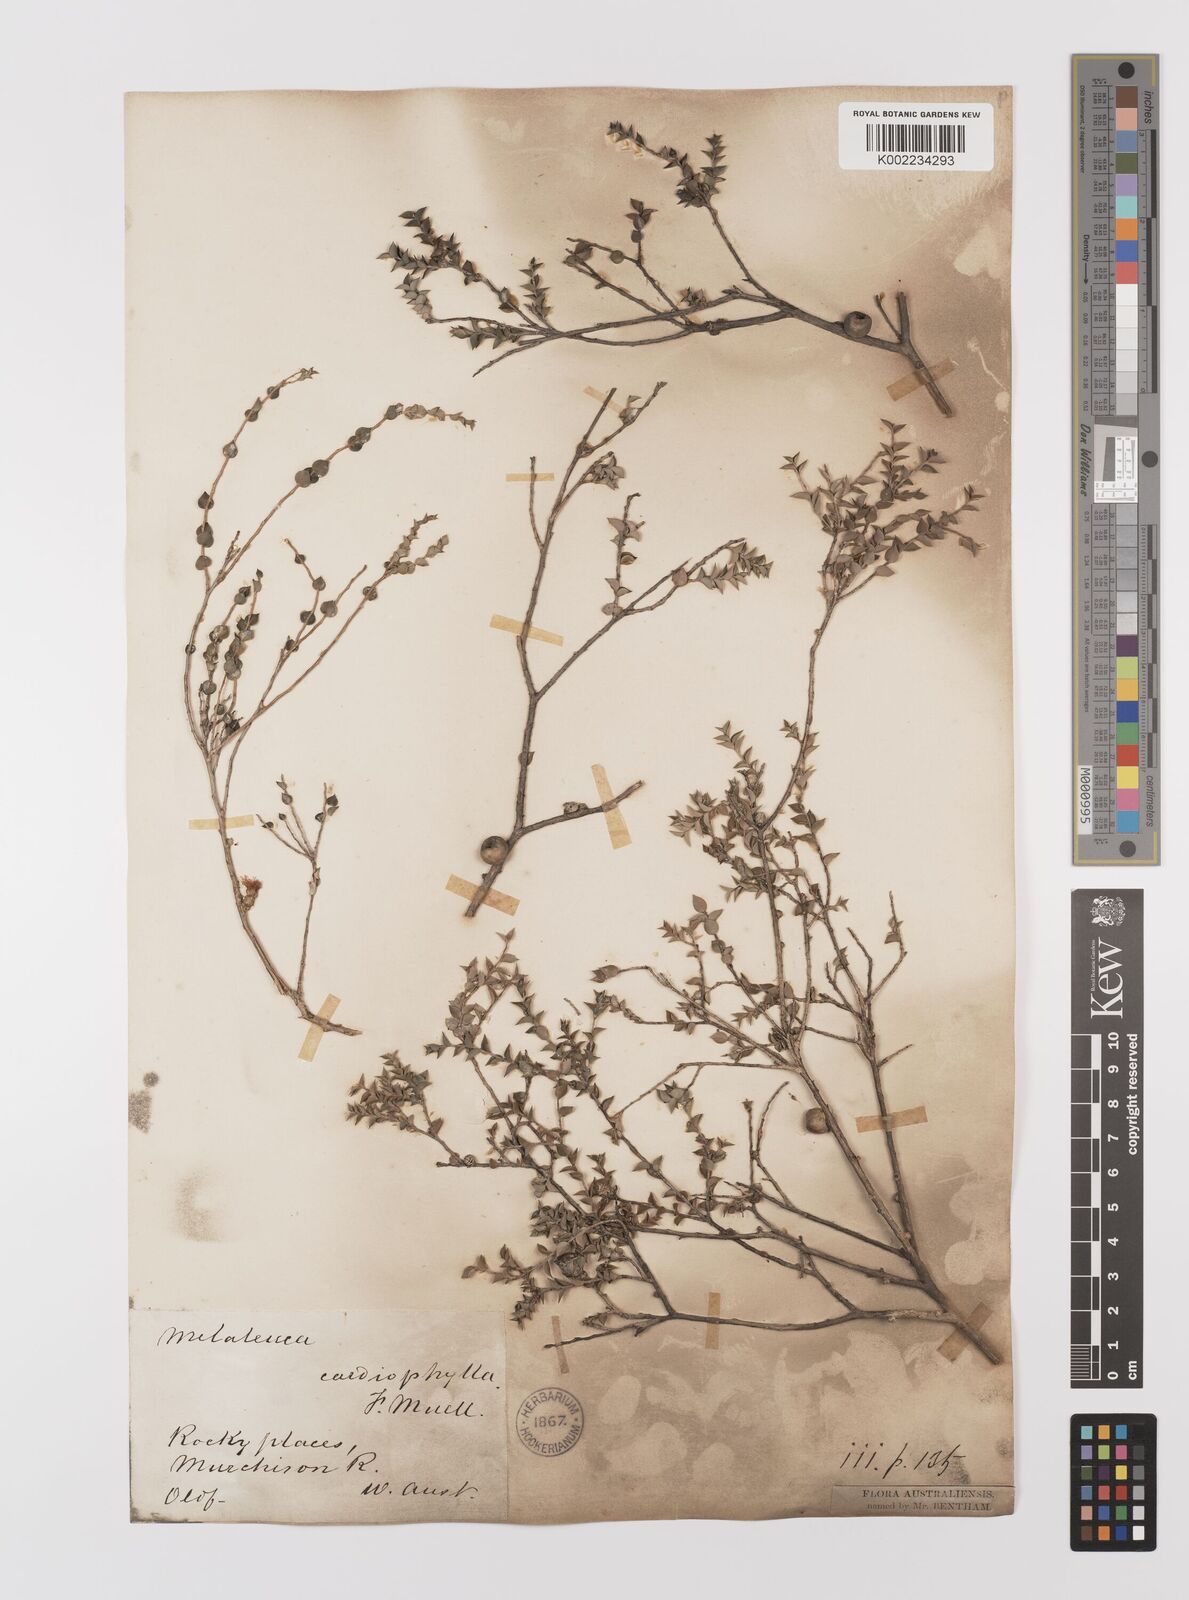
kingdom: Plantae
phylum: Tracheophyta
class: Magnoliopsida
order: Myrtales
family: Myrtaceae
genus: Melaleuca
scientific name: Melaleuca cardiophylla
